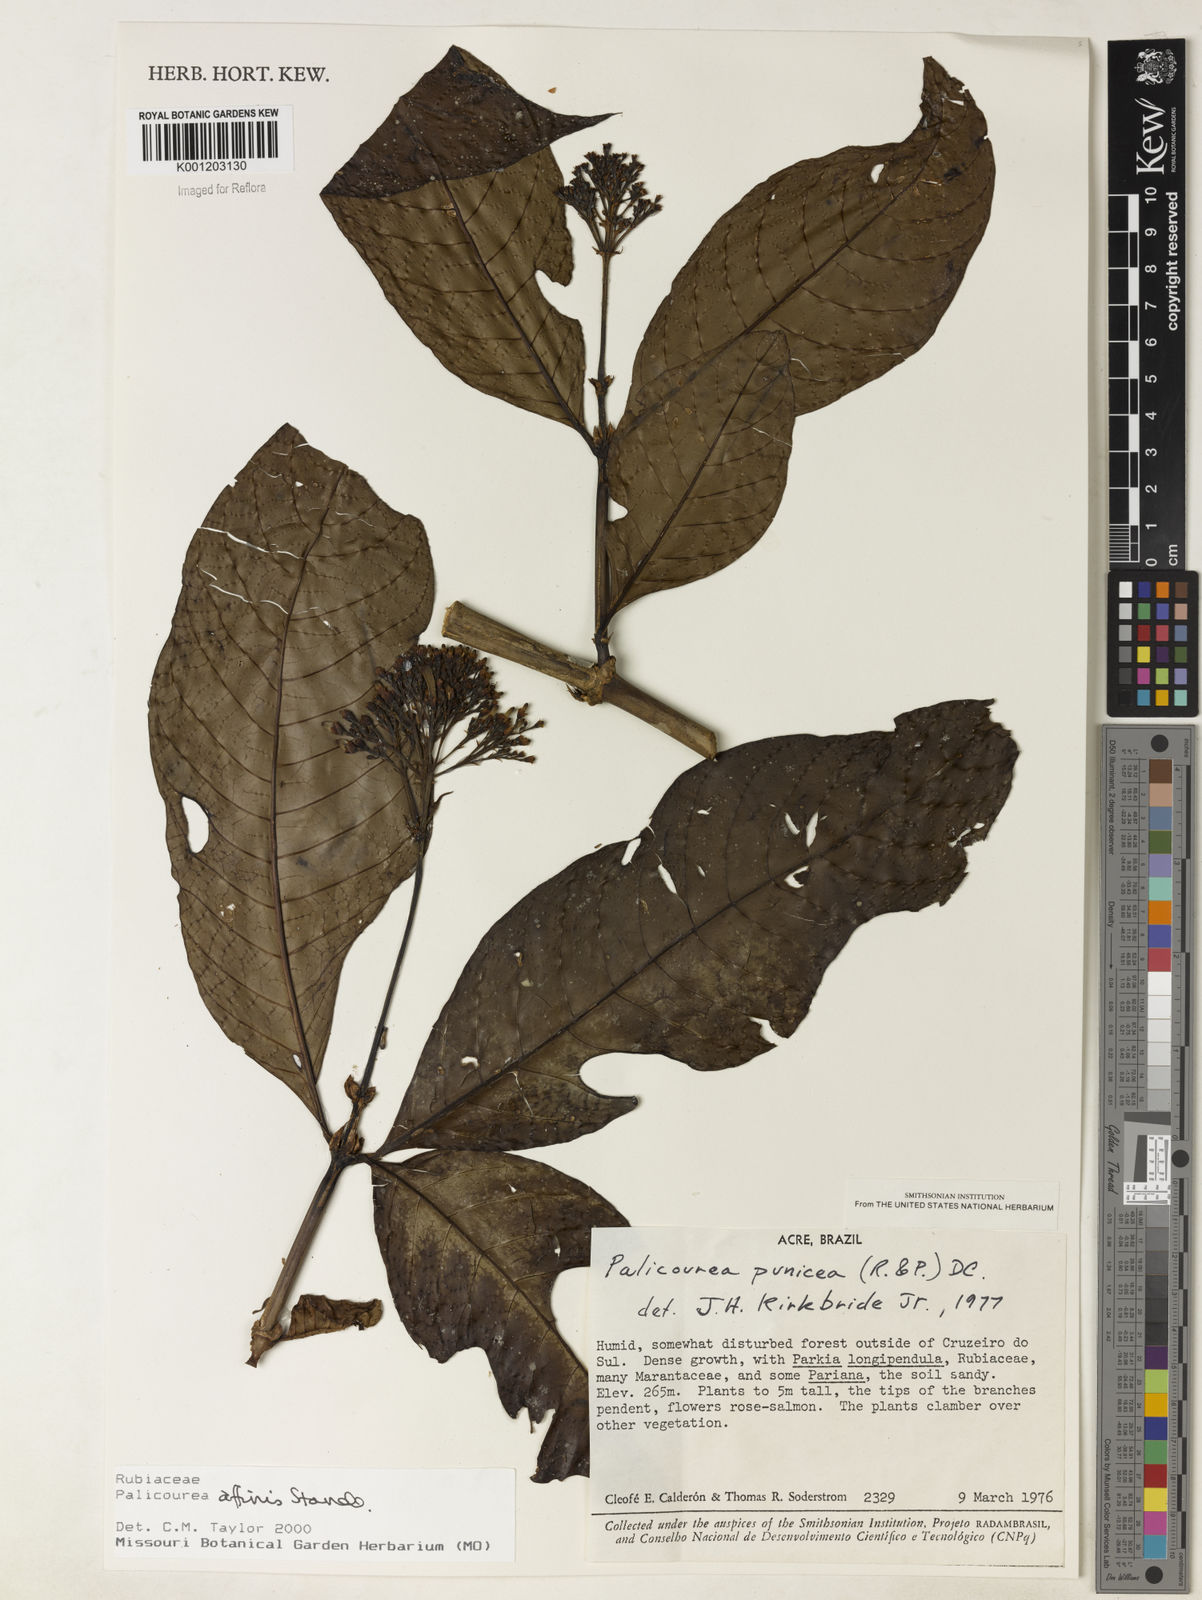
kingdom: Plantae
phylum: Tracheophyta
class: Magnoliopsida
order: Gentianales
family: Rubiaceae
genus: Palicourea
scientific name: Palicourea affinis
